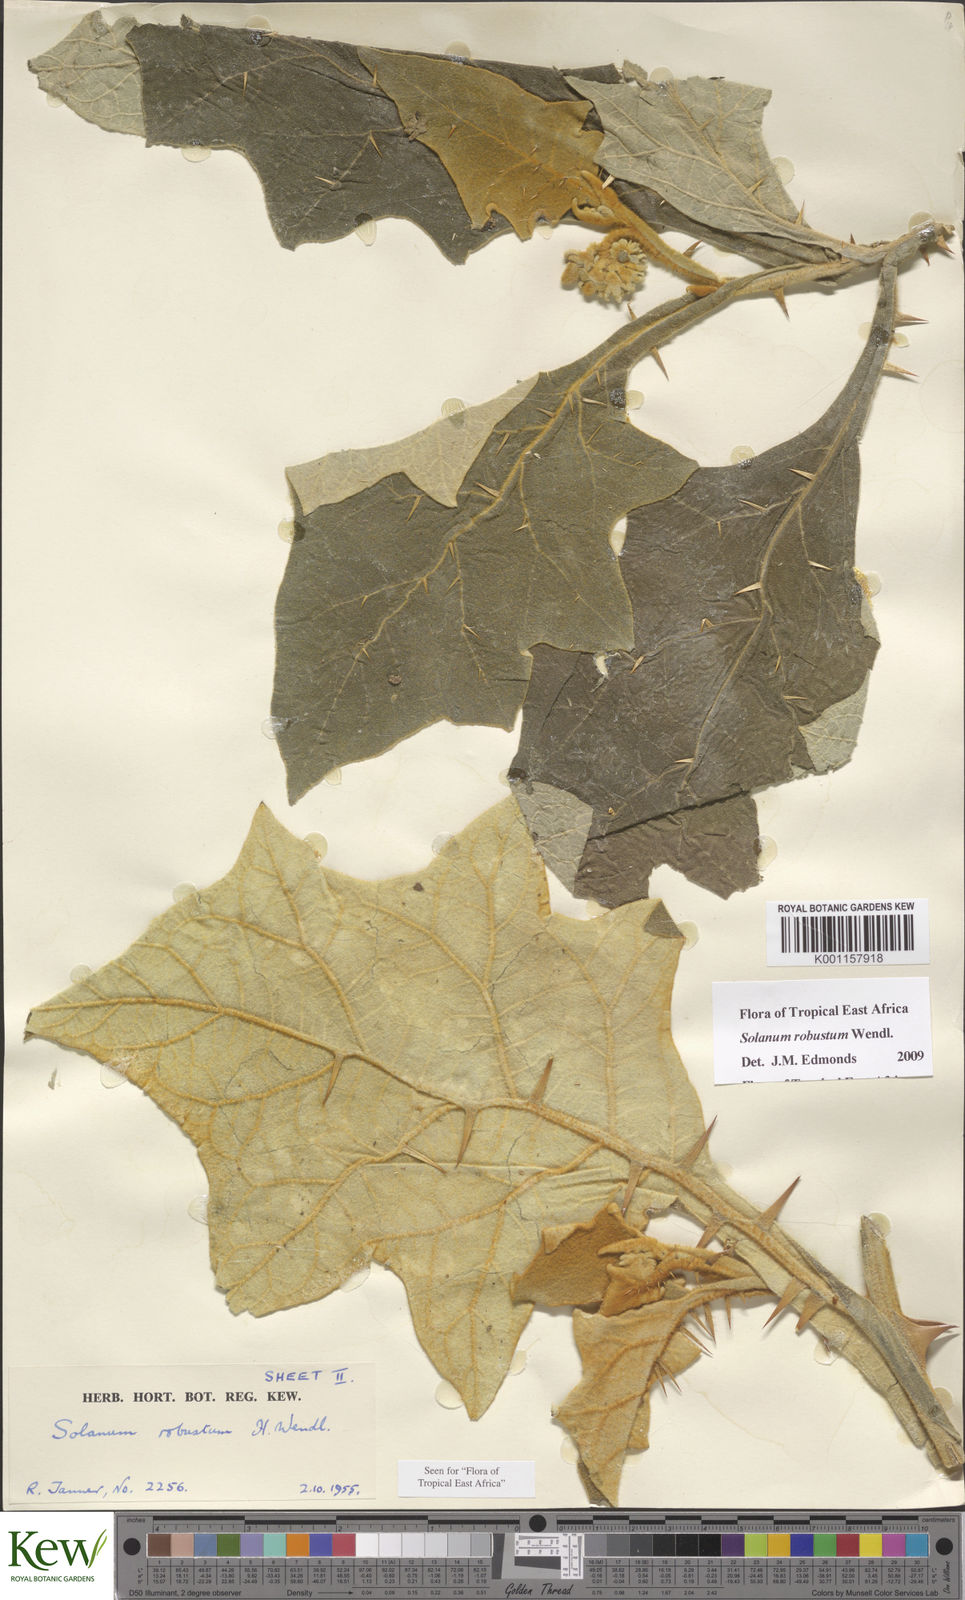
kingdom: Plantae
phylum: Tracheophyta
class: Magnoliopsida
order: Solanales
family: Solanaceae
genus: Solanum
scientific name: Solanum robustum
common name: Shrubby nightshade
